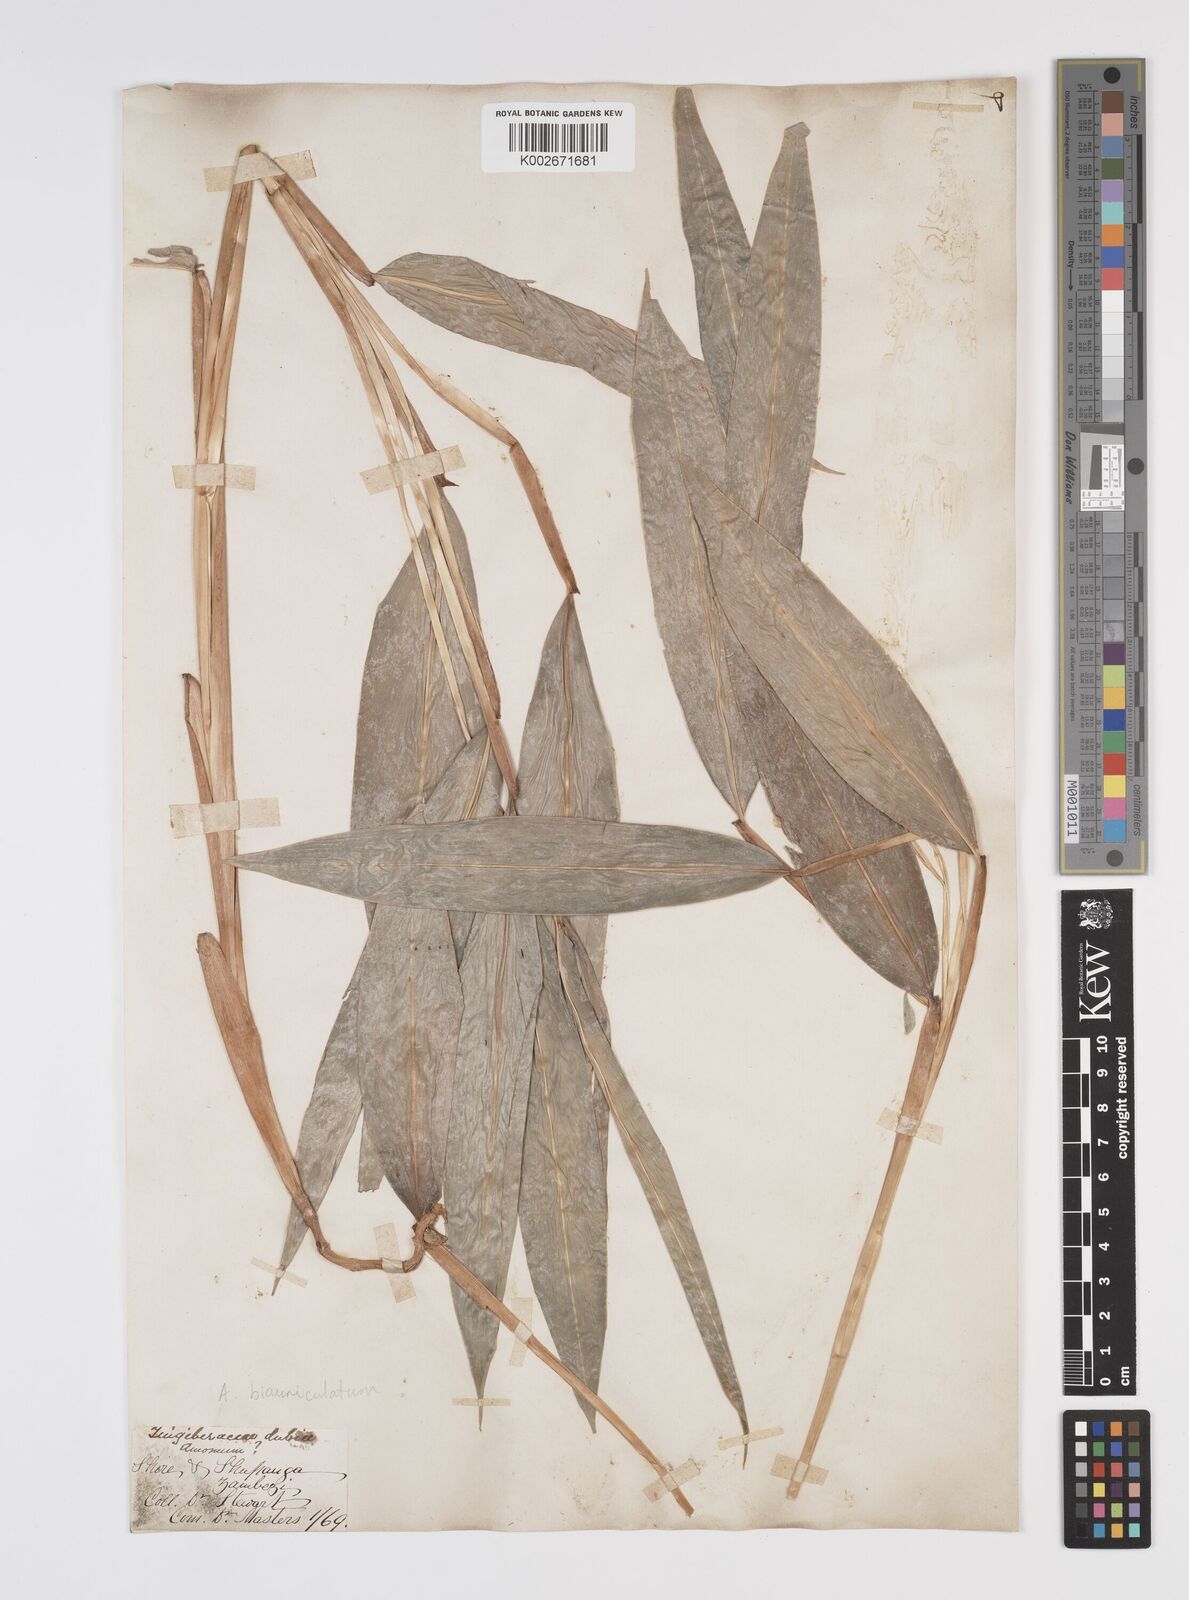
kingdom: Plantae
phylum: Tracheophyta
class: Liliopsida
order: Zingiberales
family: Zingiberaceae
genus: Aframomum
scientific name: Aframomum alboviolaceum
